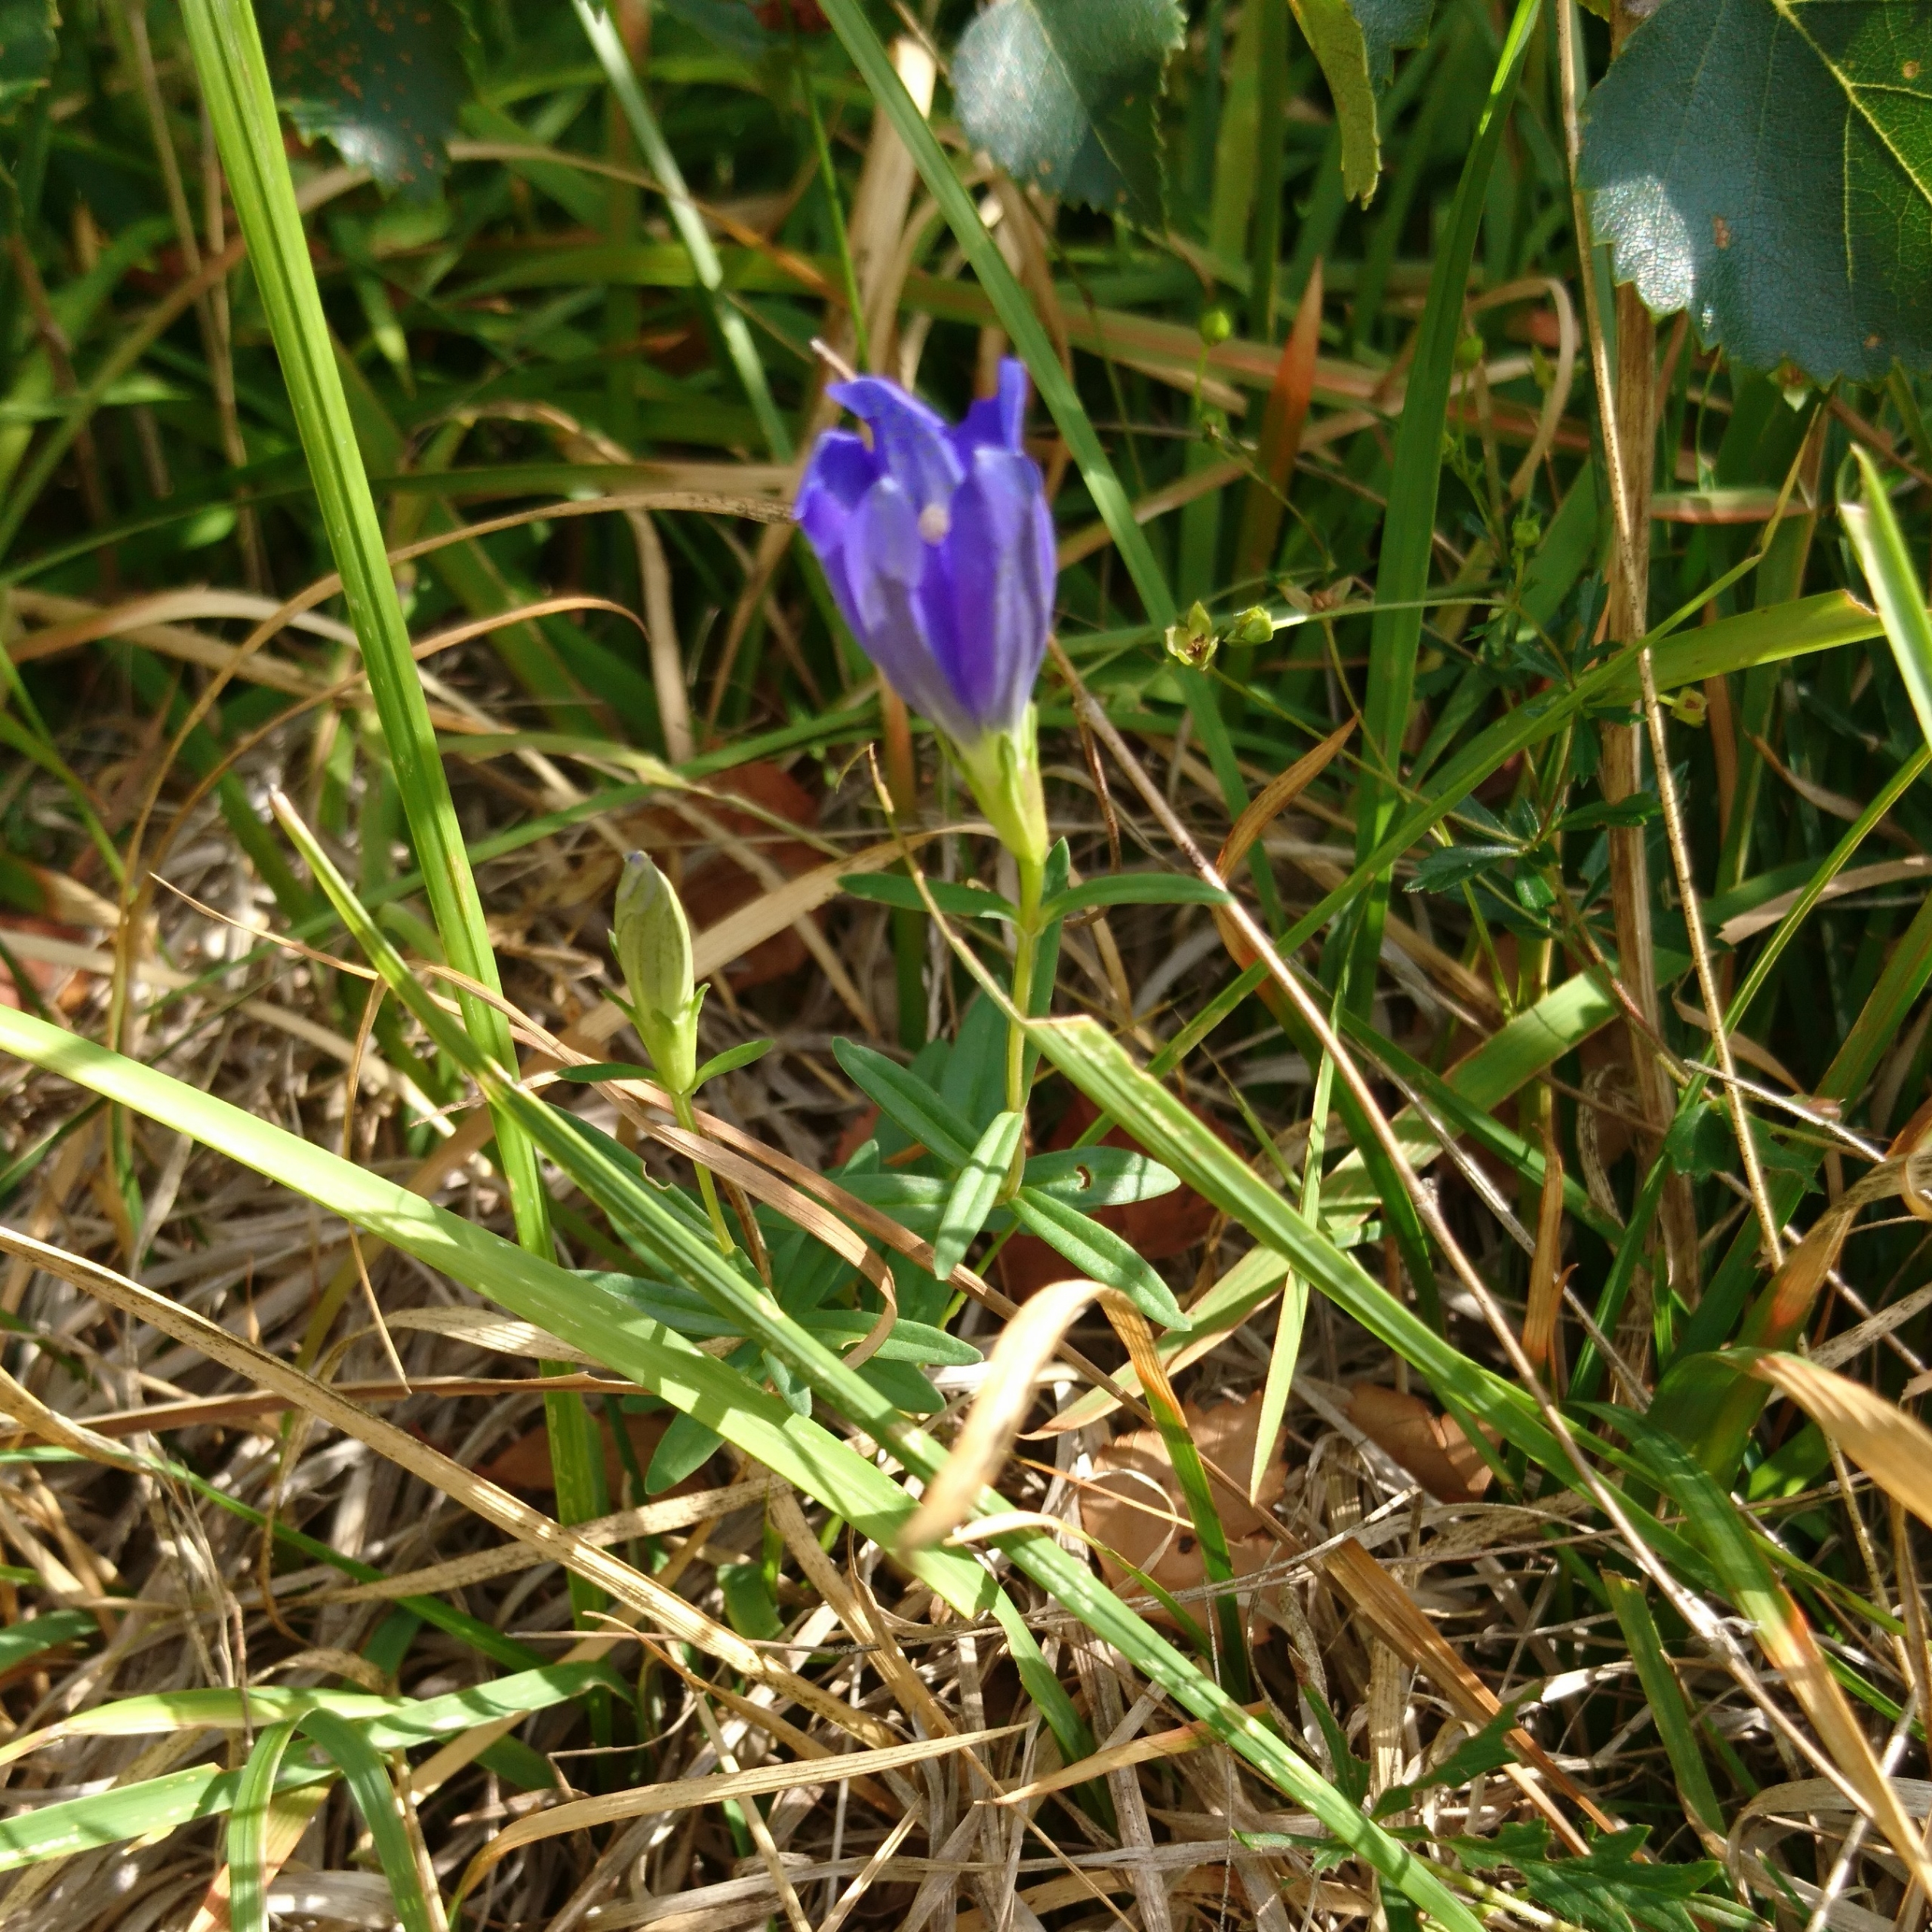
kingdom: Plantae
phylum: Tracheophyta
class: Magnoliopsida
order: Gentianales
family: Gentianaceae
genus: Gentiana
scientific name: Gentiana pneumonanthe
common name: Klokke-ensian
